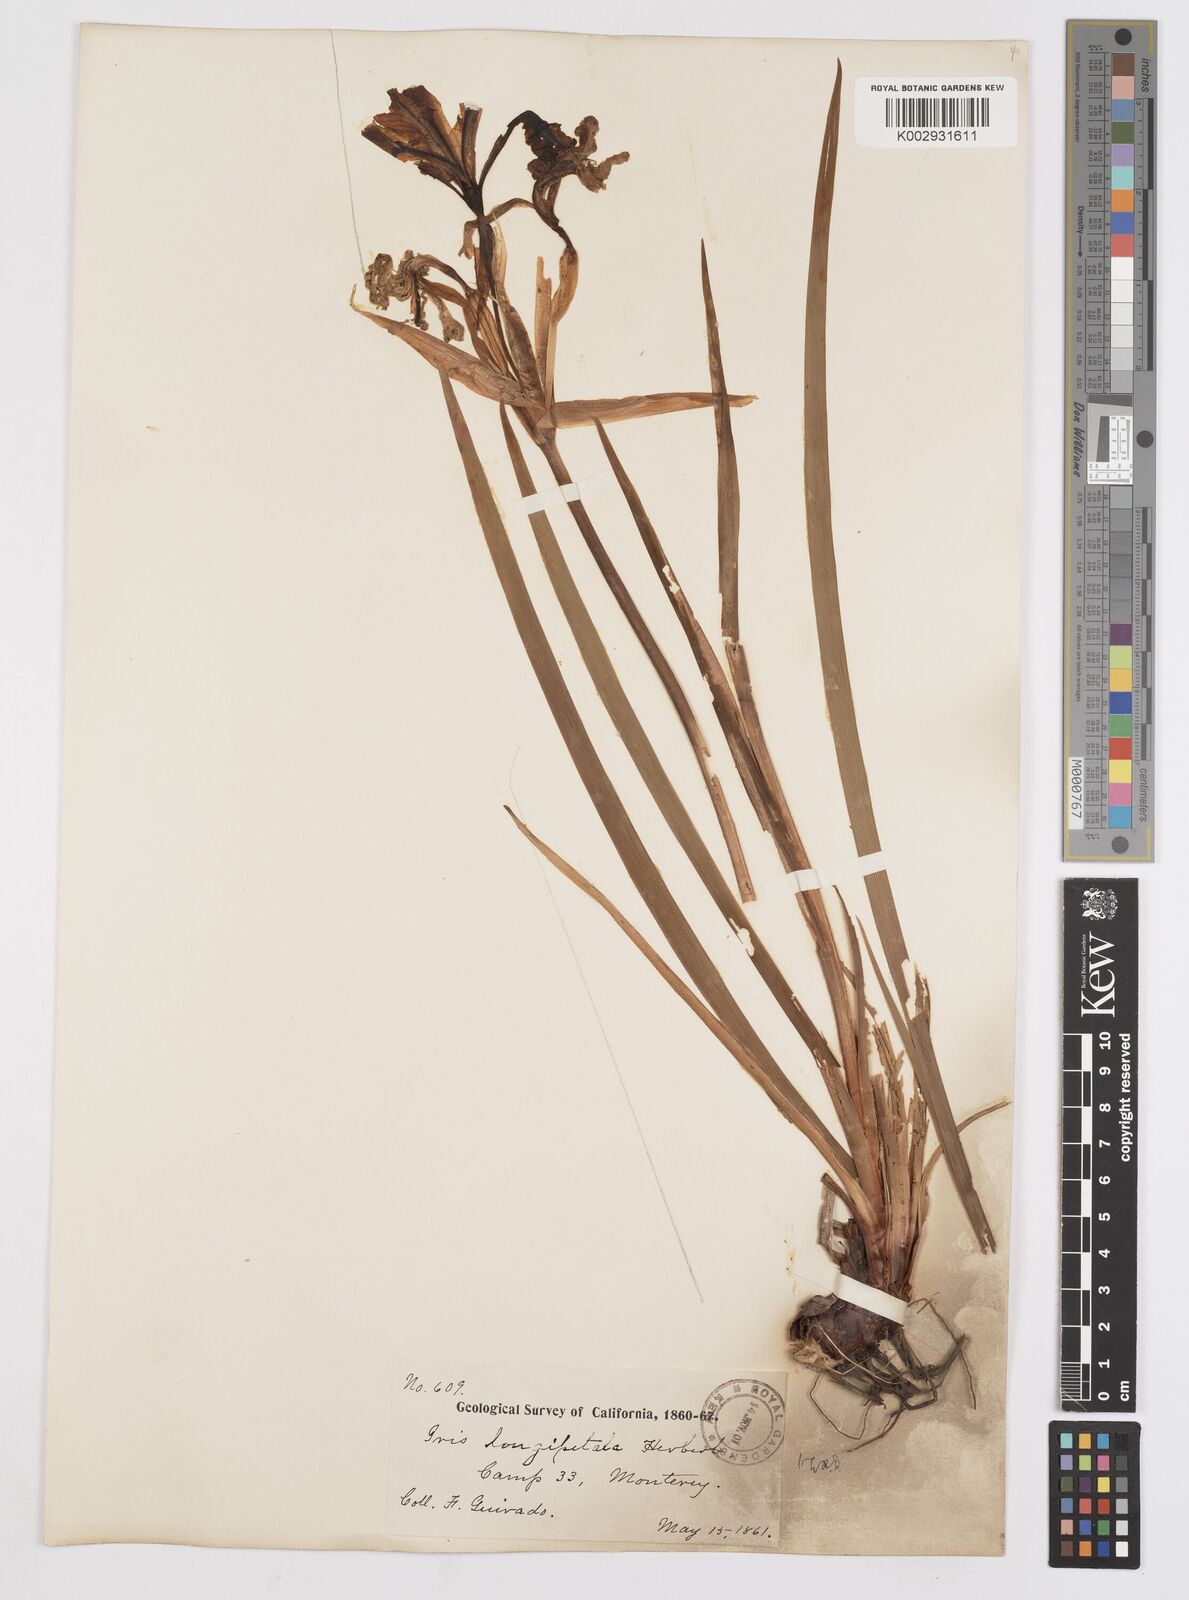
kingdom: Plantae
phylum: Tracheophyta
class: Liliopsida
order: Asparagales
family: Iridaceae
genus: Iris
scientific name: Iris longipetala
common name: Long-petal iris
